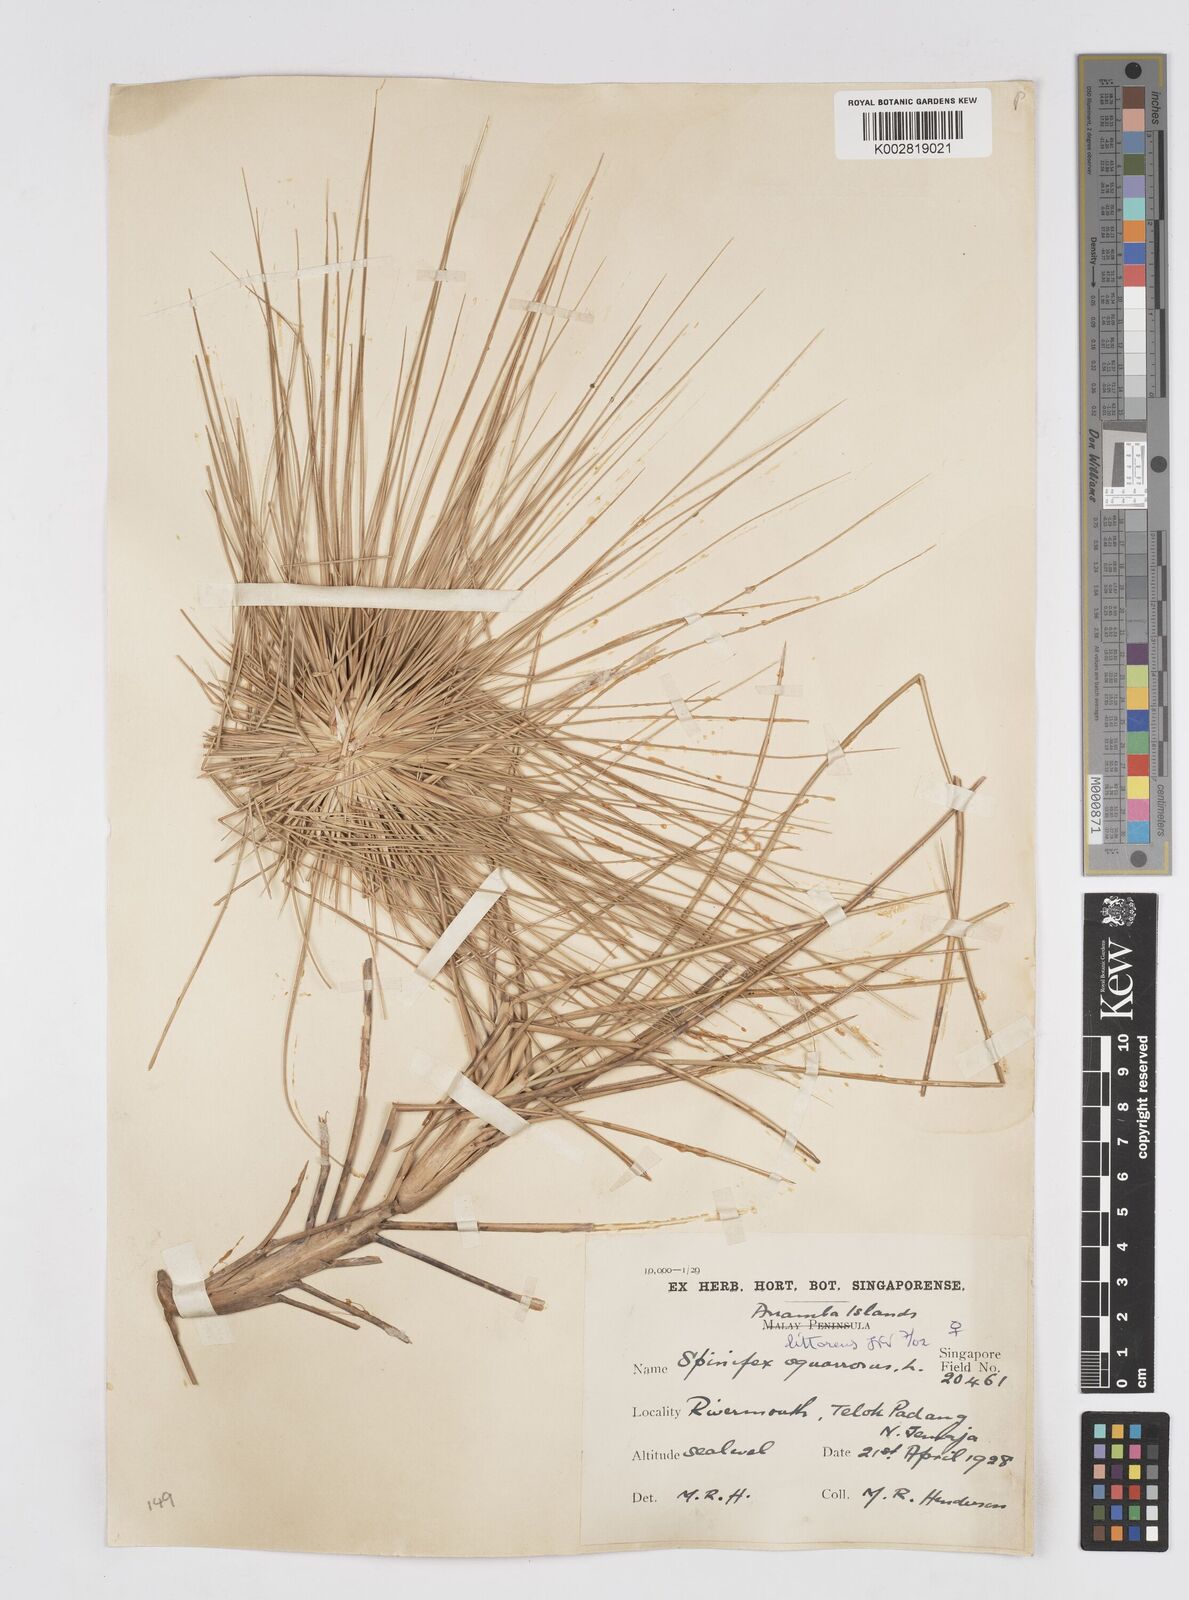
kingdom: Plantae
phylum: Tracheophyta
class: Liliopsida
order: Poales
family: Poaceae
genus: Spinifex
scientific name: Spinifex littoreus
